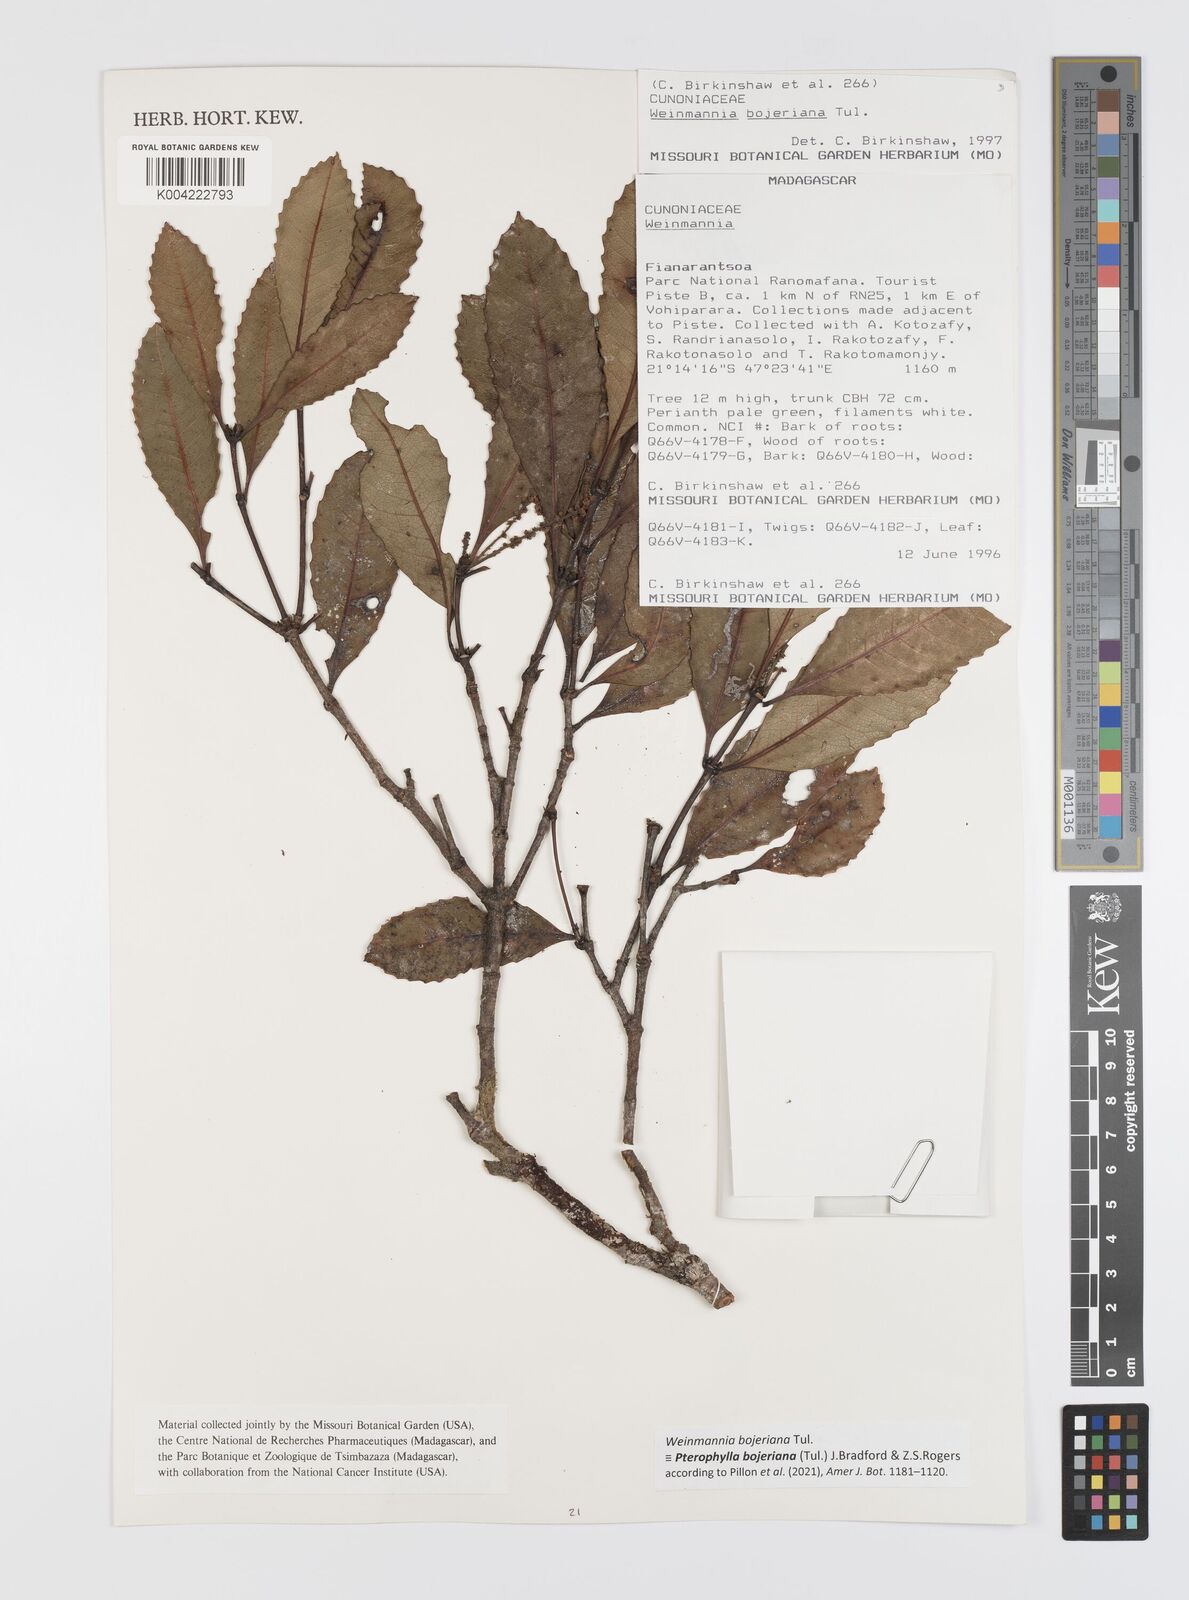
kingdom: Plantae
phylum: Tracheophyta
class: Magnoliopsida
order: Oxalidales
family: Cunoniaceae
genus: Pterophylla
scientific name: Pterophylla
